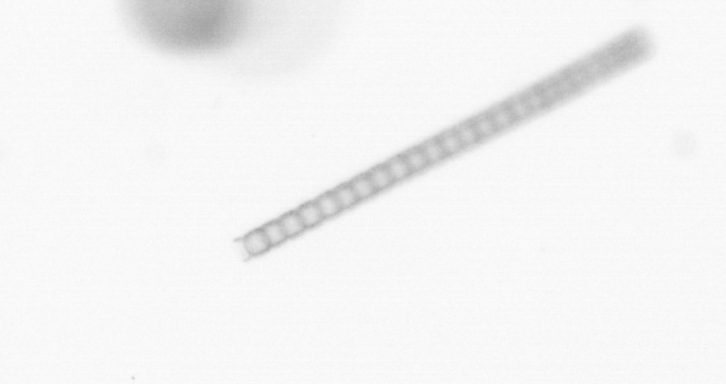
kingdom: Chromista
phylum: Ochrophyta
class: Bacillariophyceae
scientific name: Bacillariophyceae
